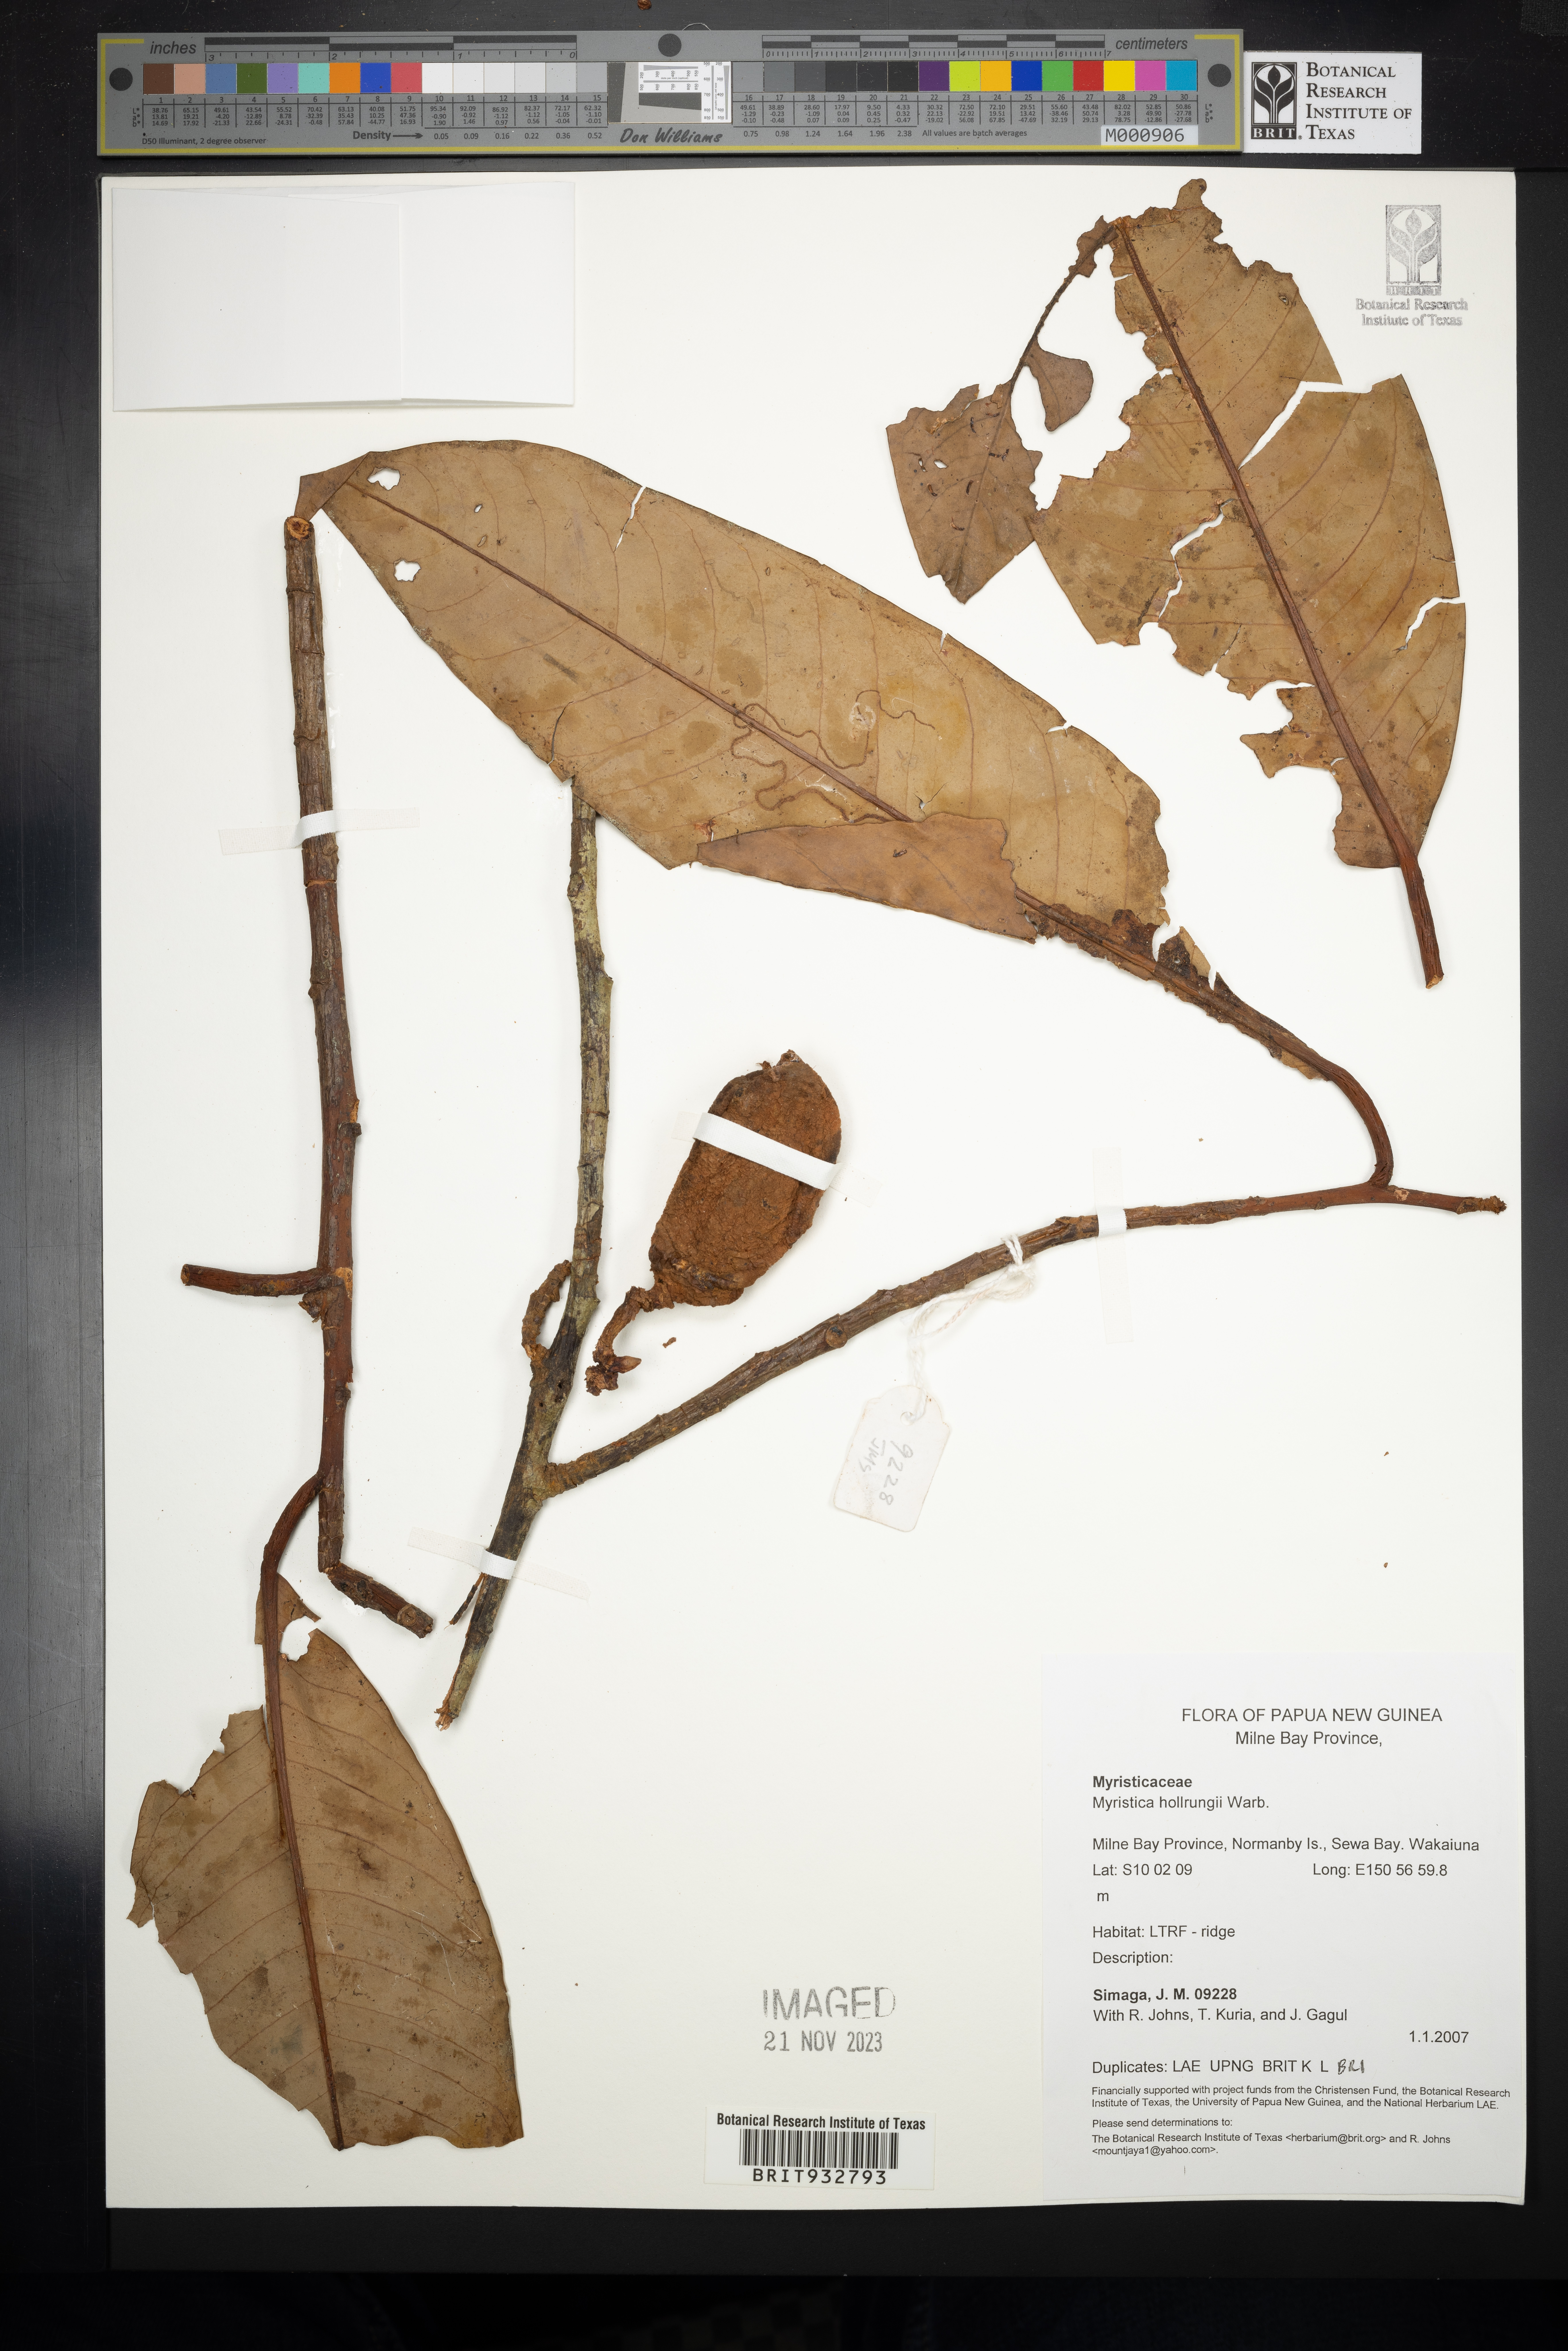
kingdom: Plantae
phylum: Tracheophyta
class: Magnoliopsida
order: Magnoliales
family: Myristicaceae
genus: Myristica
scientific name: Myristica
